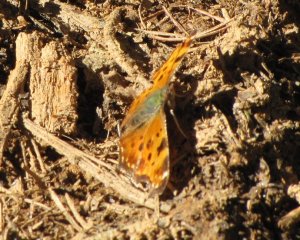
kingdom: Animalia
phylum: Arthropoda
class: Insecta
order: Lepidoptera
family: Nymphalidae
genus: Polygonia
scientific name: Polygonia comma
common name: Eastern Comma
